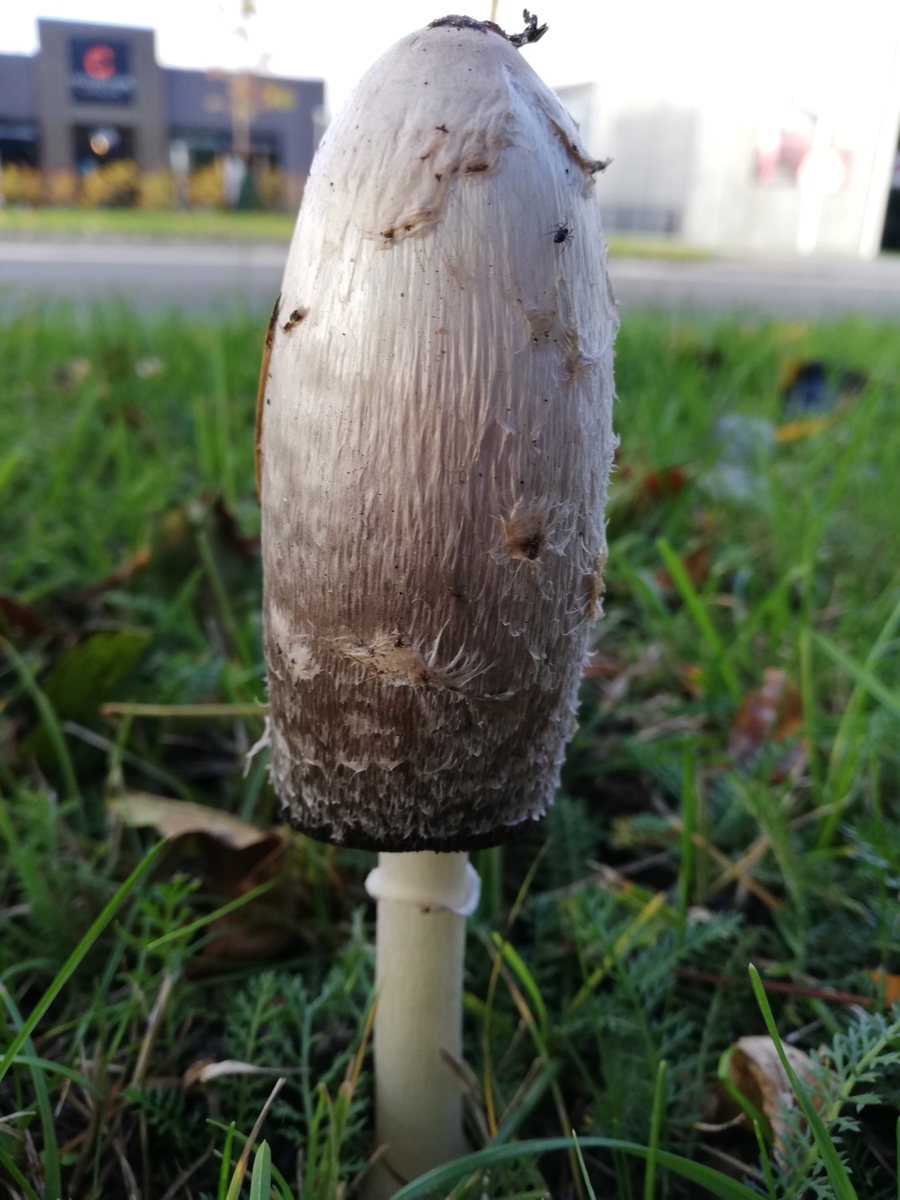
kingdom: Fungi
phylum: Basidiomycota
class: Agaricomycetes
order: Agaricales
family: Agaricaceae
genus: Coprinus
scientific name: Coprinus comatus
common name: stor parykhat
